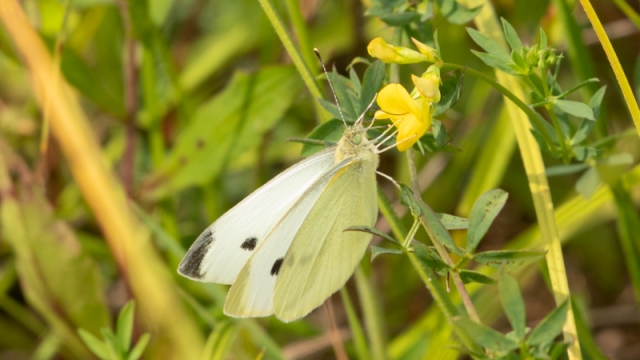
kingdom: Animalia
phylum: Arthropoda
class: Insecta
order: Lepidoptera
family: Pieridae
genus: Pieris
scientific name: Pieris rapae
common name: Cabbage White
